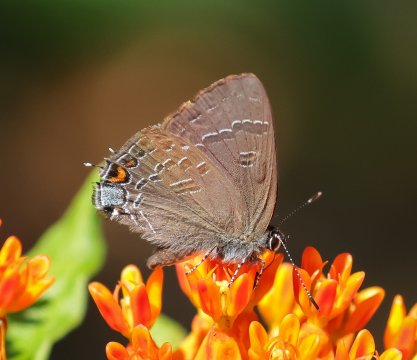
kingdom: Animalia
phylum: Arthropoda
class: Insecta
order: Lepidoptera
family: Lycaenidae
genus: Satyrium
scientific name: Satyrium calanus
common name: Banded Hairstreak
